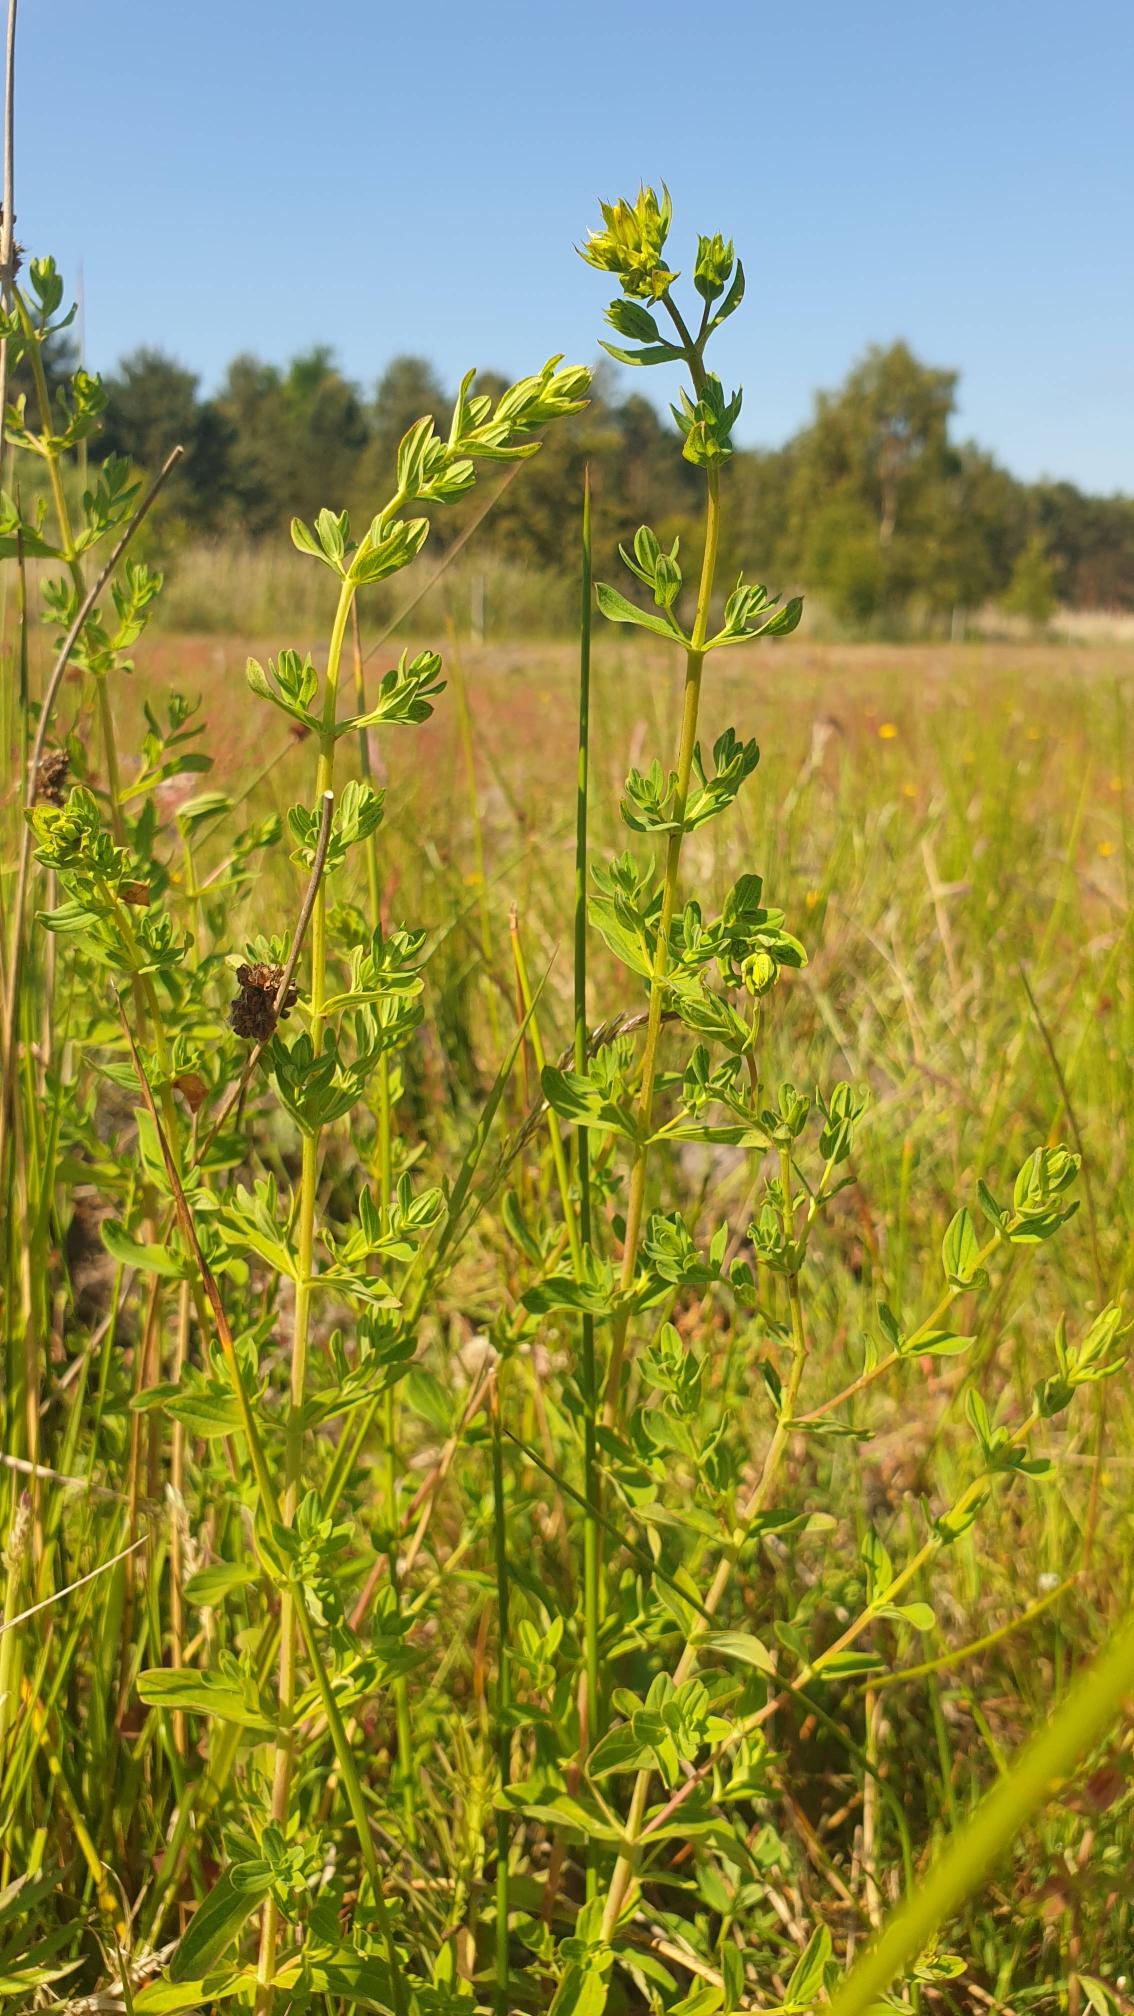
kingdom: Plantae
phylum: Tracheophyta
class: Magnoliopsida
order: Malpighiales
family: Hypericaceae
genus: Hypericum
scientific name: Hypericum perforatum
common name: Prikbladet perikon
